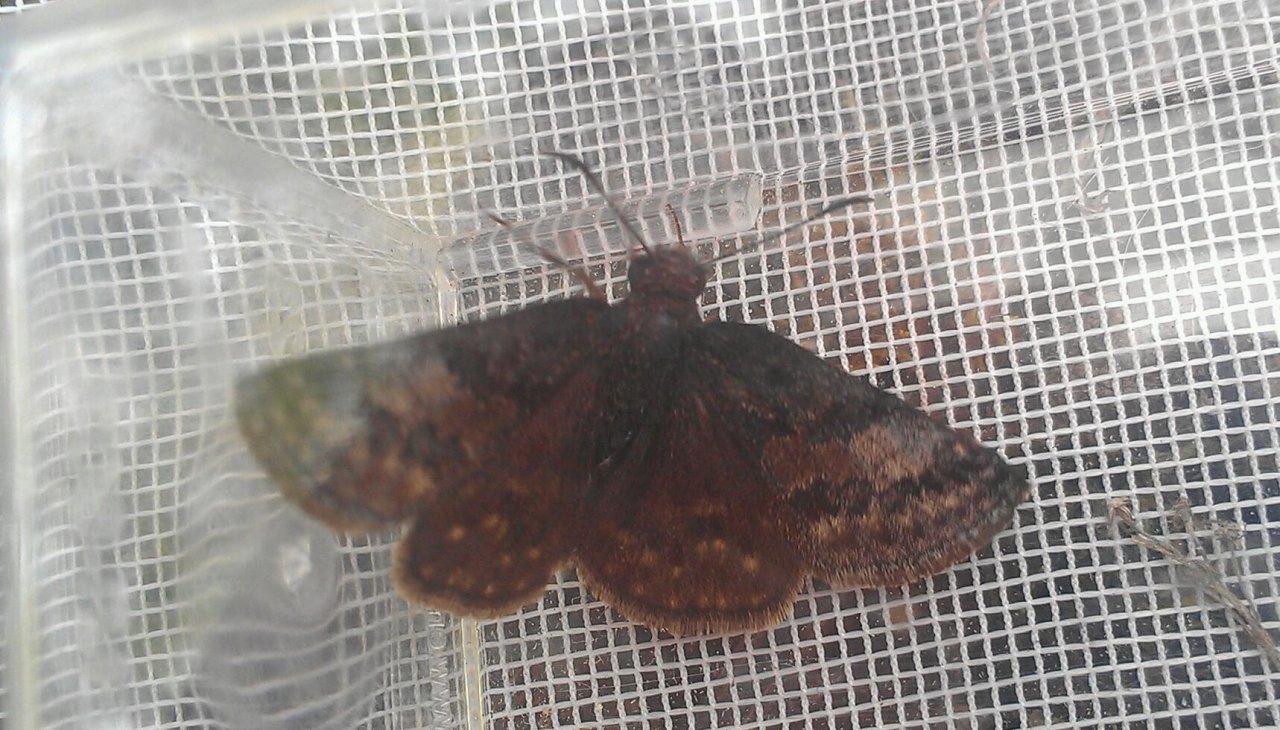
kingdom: Animalia
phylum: Arthropoda
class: Insecta
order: Lepidoptera
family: Hesperiidae
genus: Erynnis
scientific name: Erynnis icelus
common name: Dreamy Duskywing
